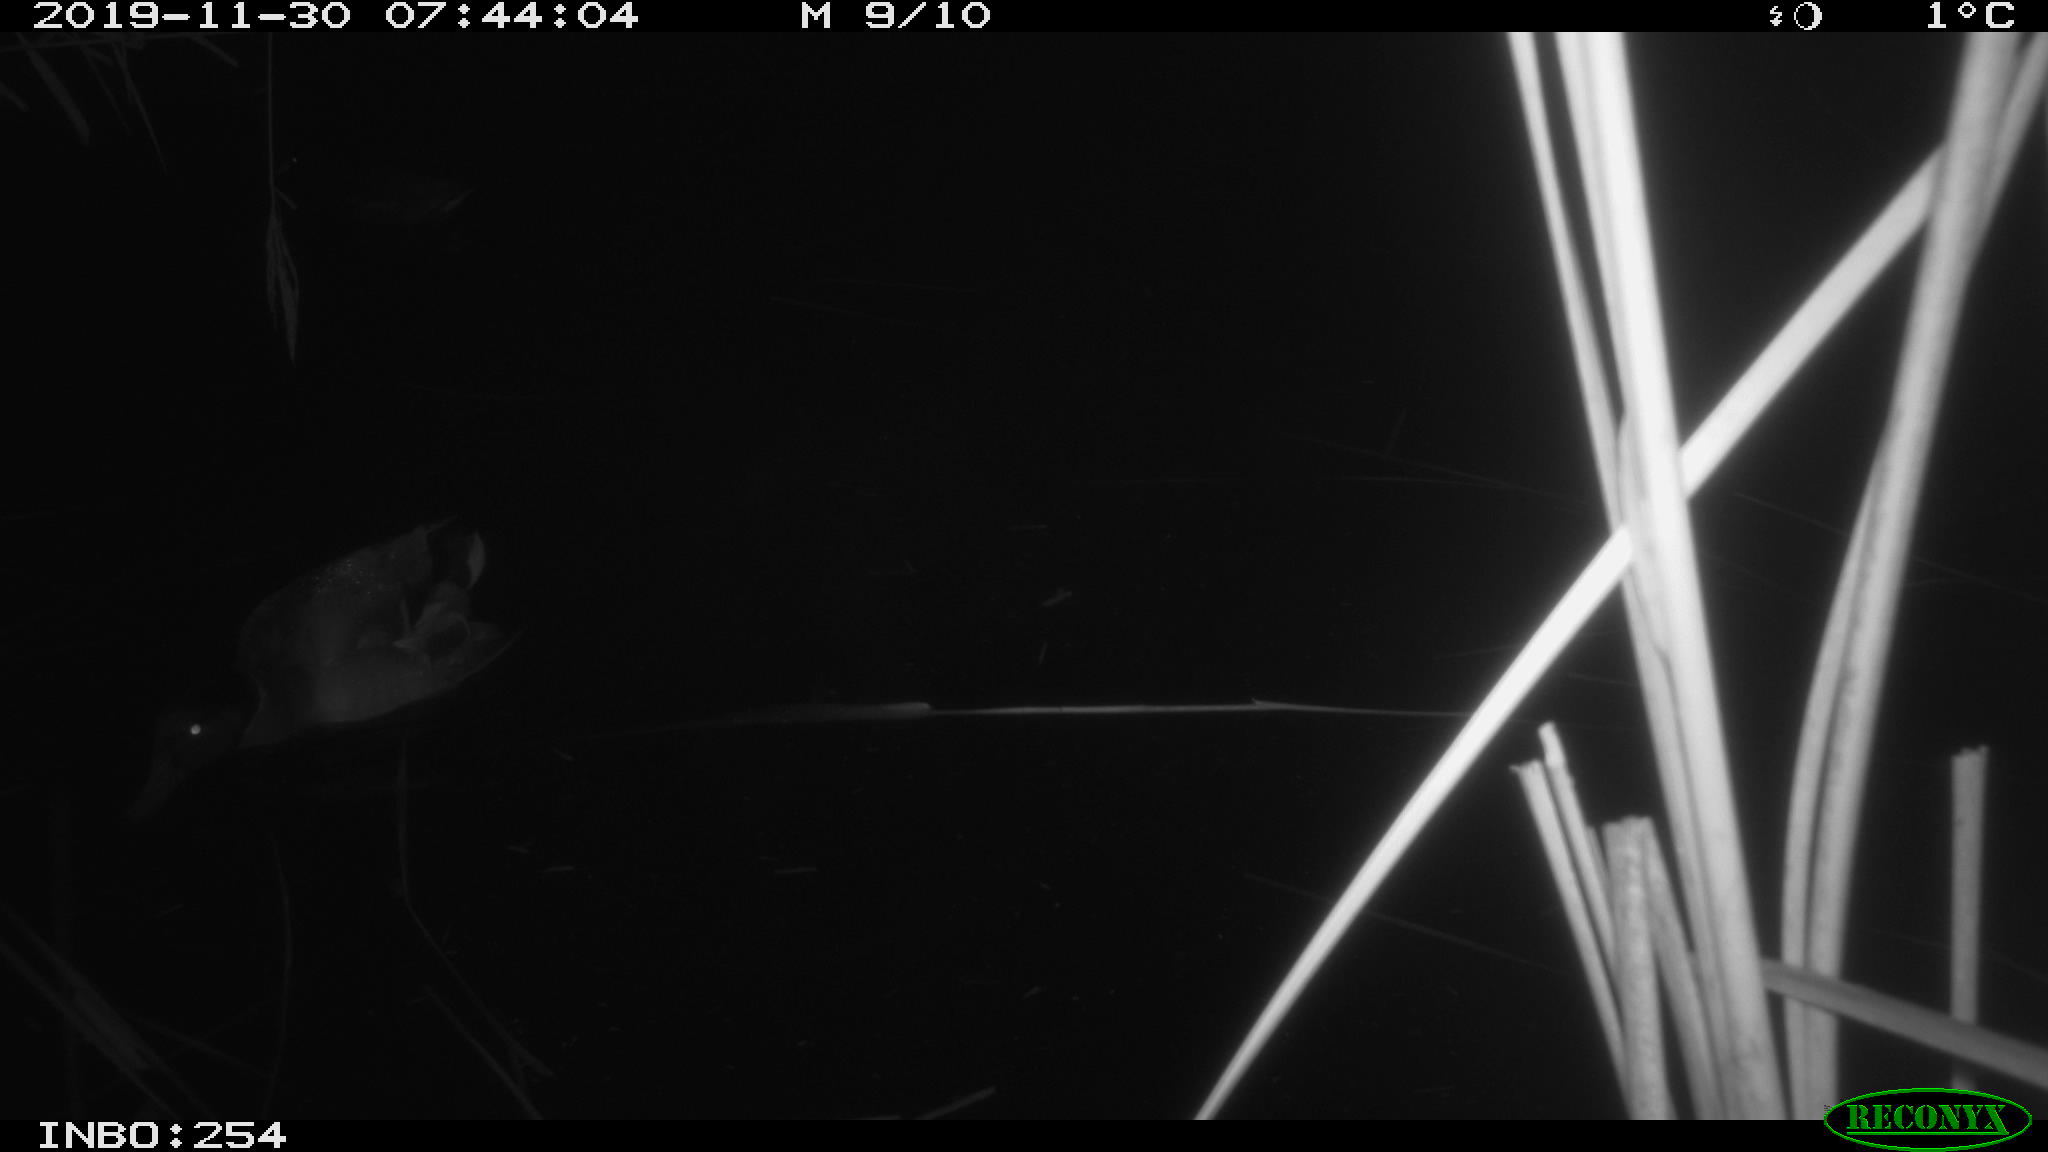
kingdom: Animalia
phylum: Chordata
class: Aves
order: Gruiformes
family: Rallidae
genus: Gallinula
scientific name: Gallinula chloropus
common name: Common moorhen
